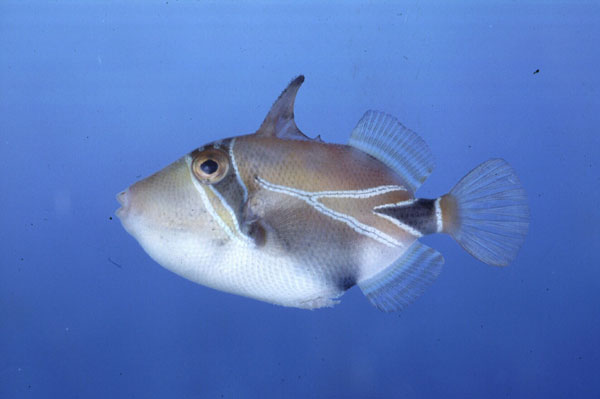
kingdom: Animalia
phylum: Chordata
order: Tetraodontiformes
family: Balistidae
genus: Rhinecanthus
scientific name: Rhinecanthus rectangulus
